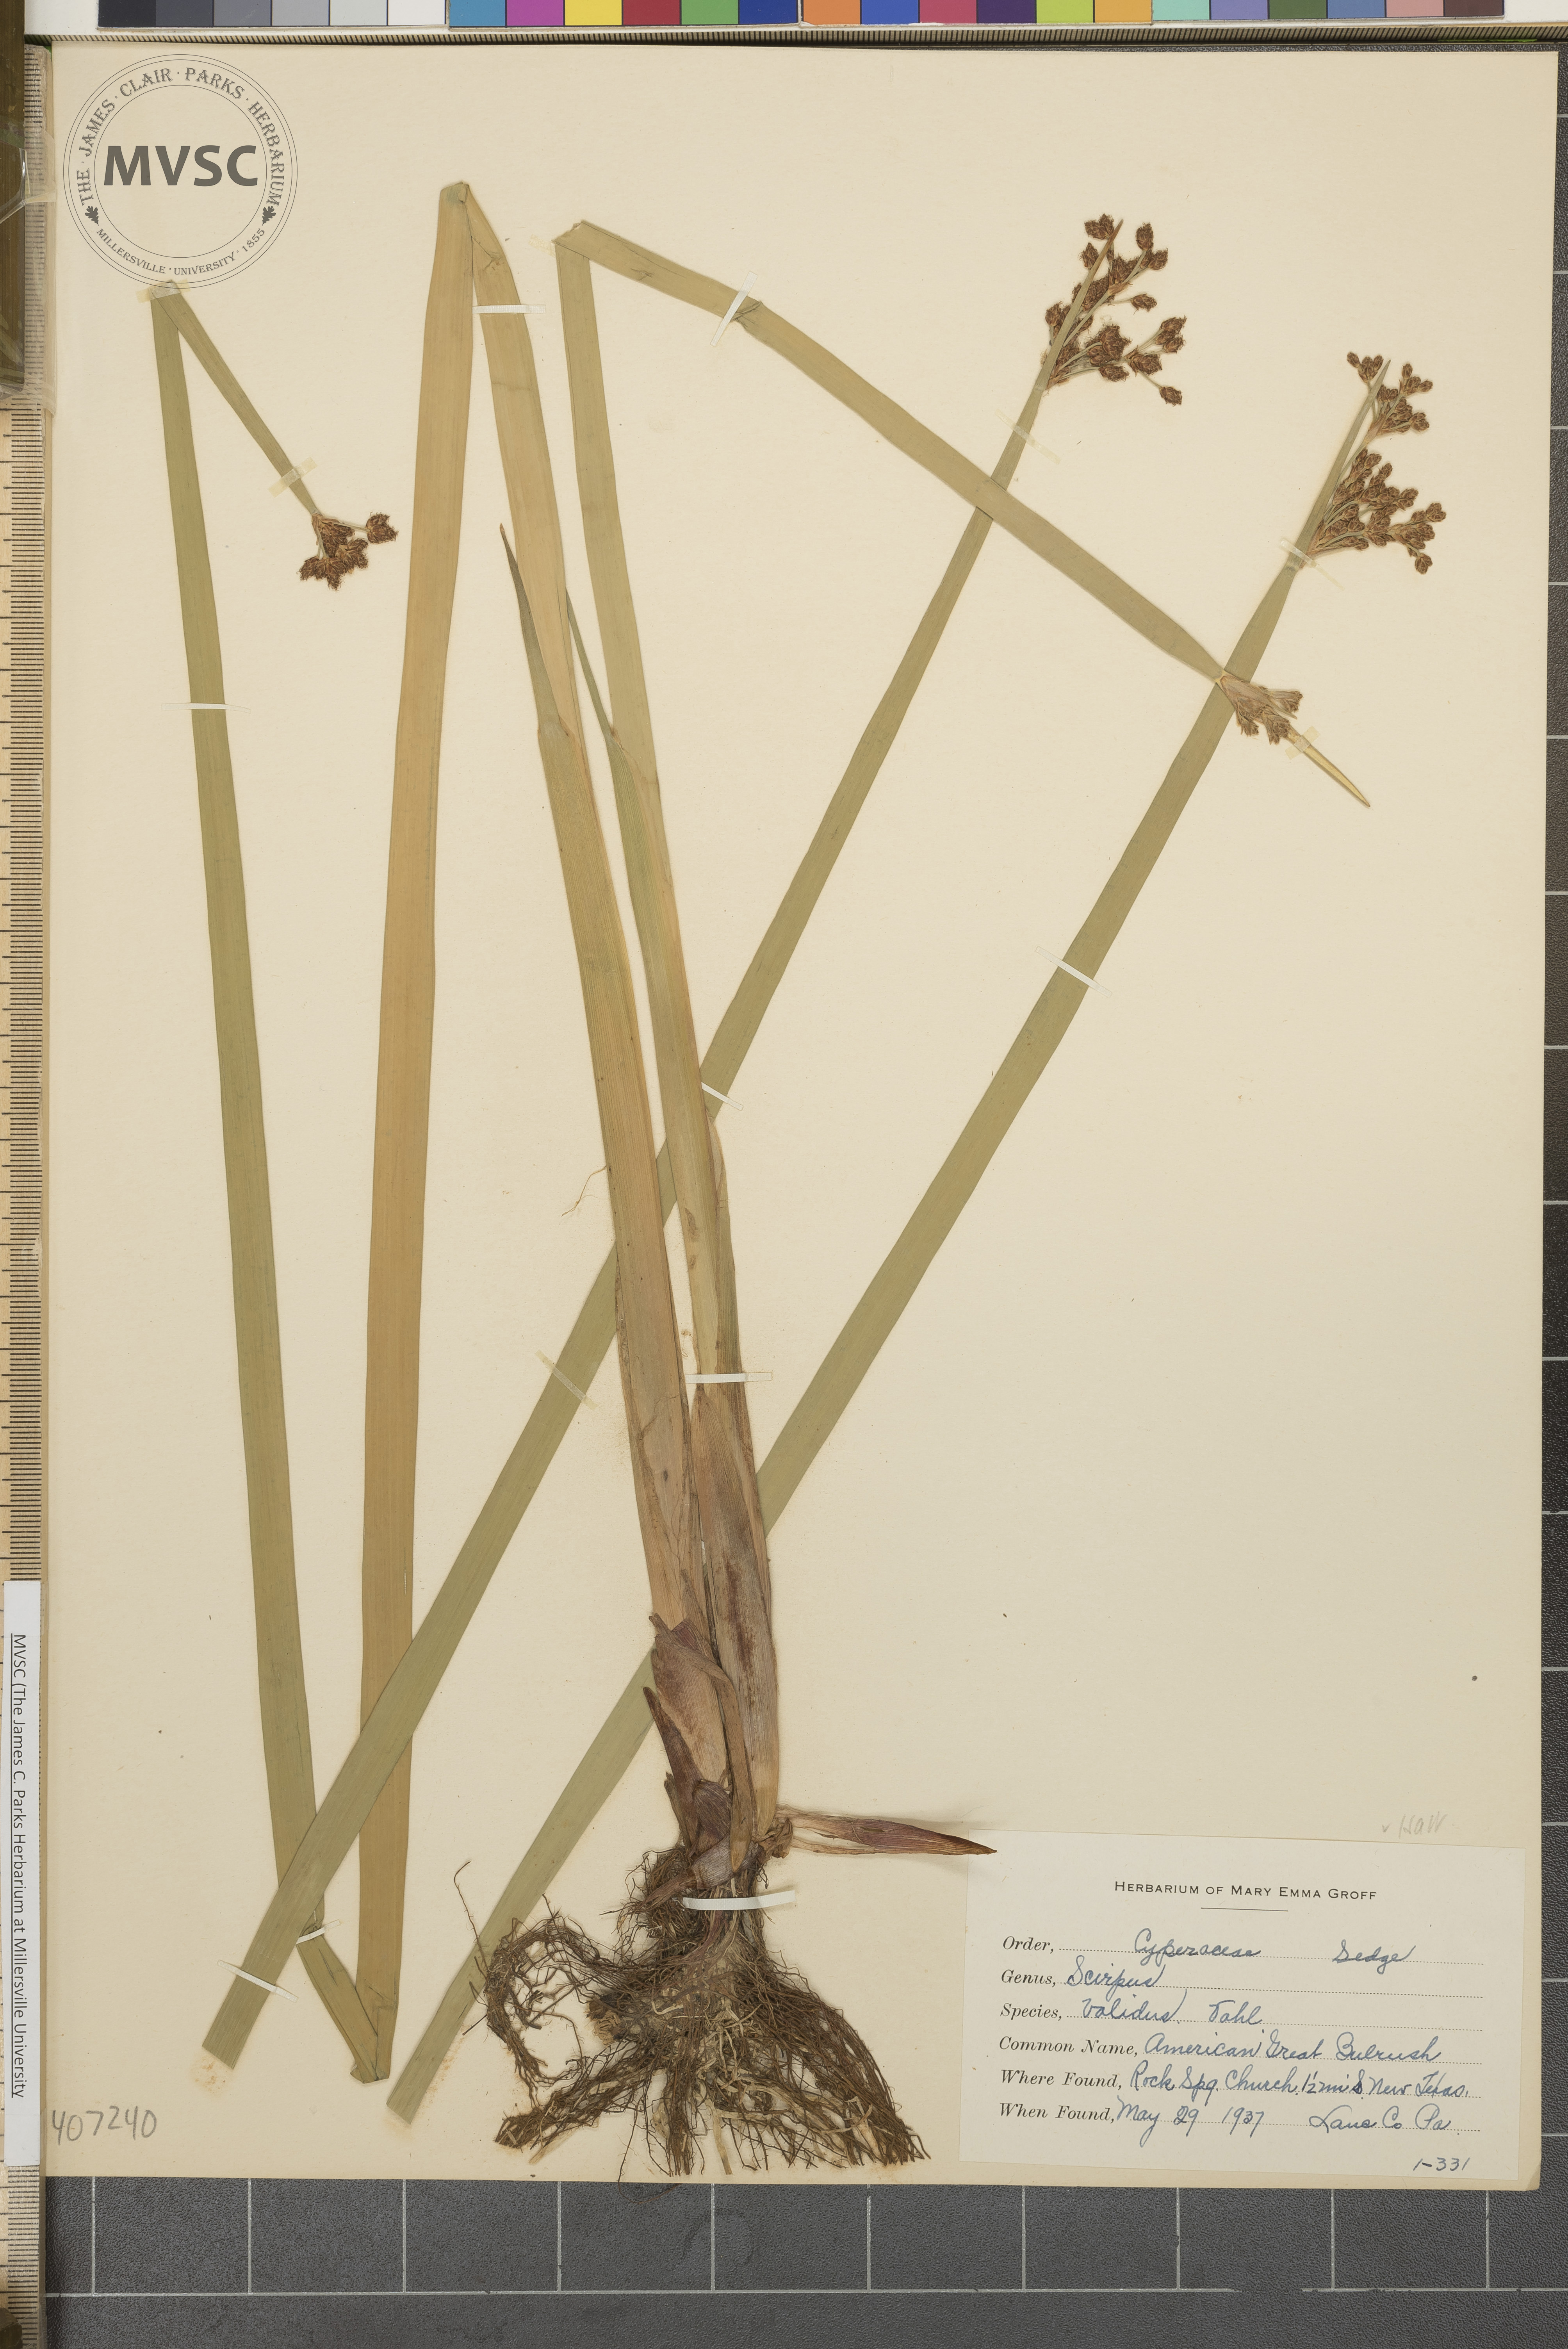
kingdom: Plantae
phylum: Tracheophyta
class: Liliopsida
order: Poales
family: Cyperaceae
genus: Schoenoplectus
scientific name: Schoenoplectus tabernaemontani
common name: American Great Bulrush
